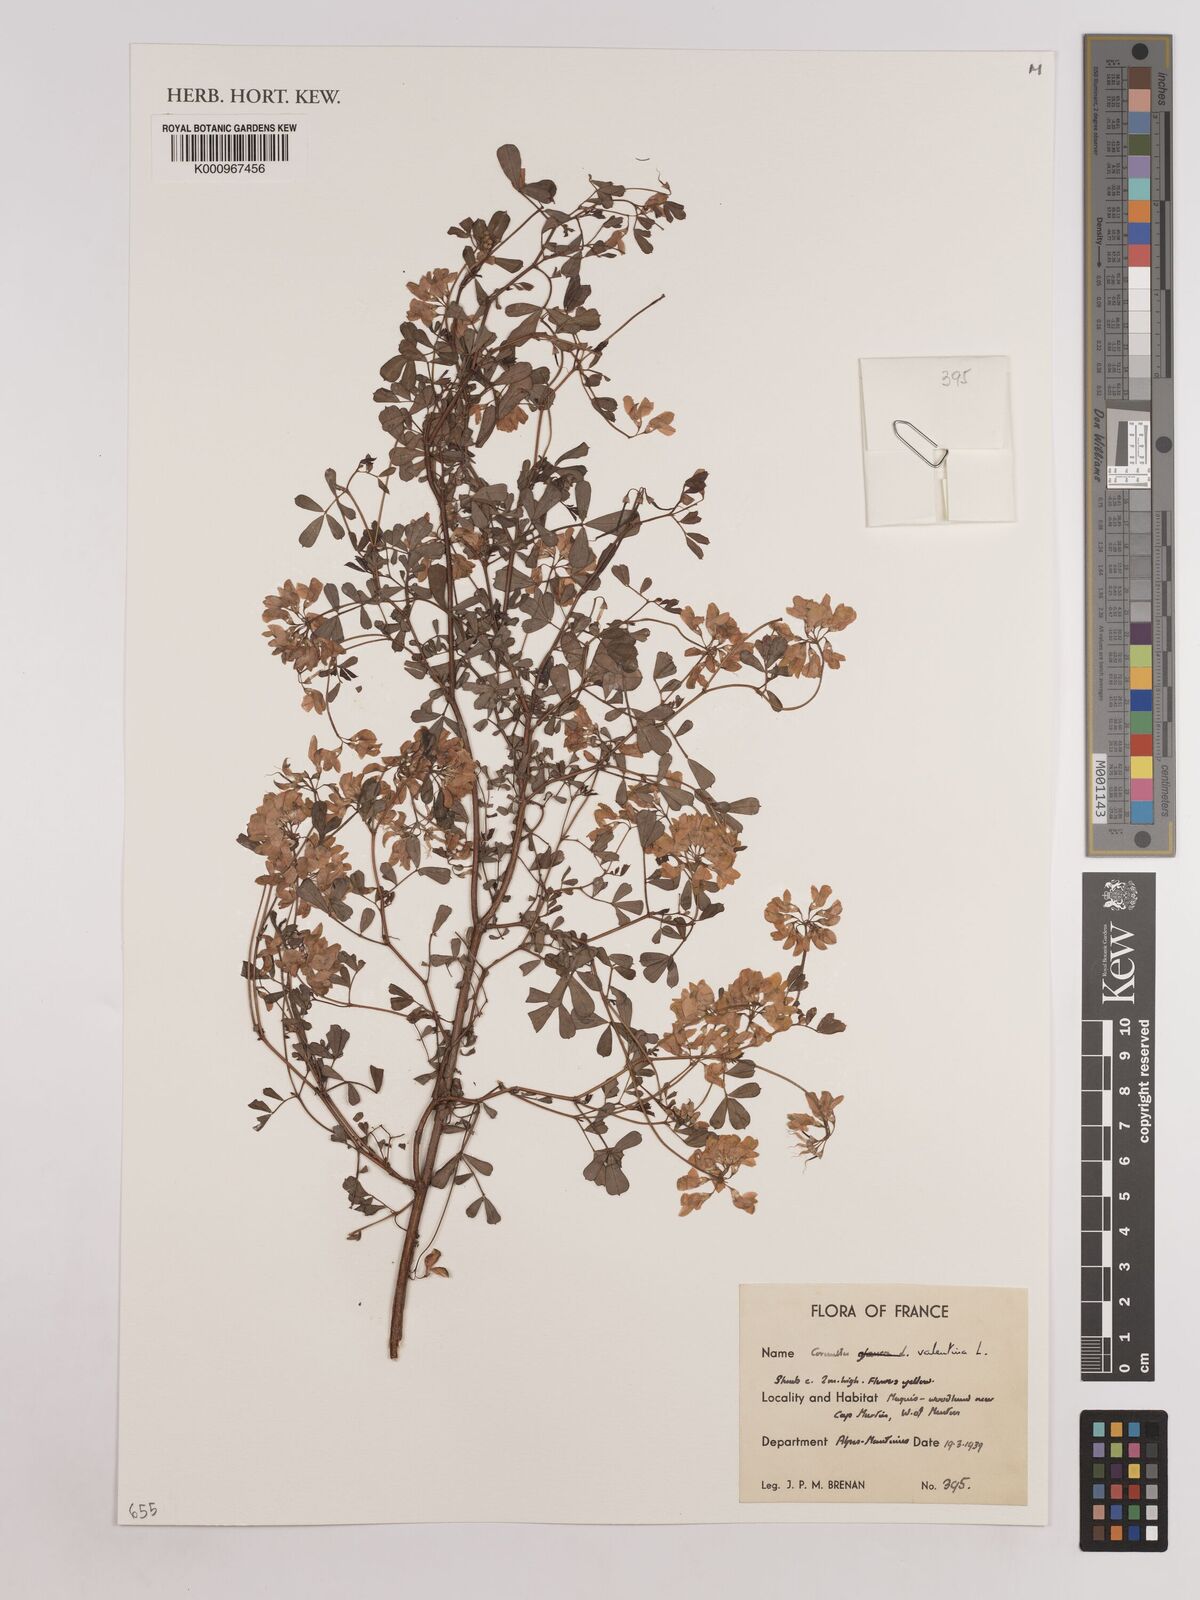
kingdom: Plantae
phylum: Tracheophyta
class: Magnoliopsida
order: Fabales
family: Fabaceae
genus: Coronilla
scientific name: Coronilla valentina
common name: Shrubby scorpion-vetch
